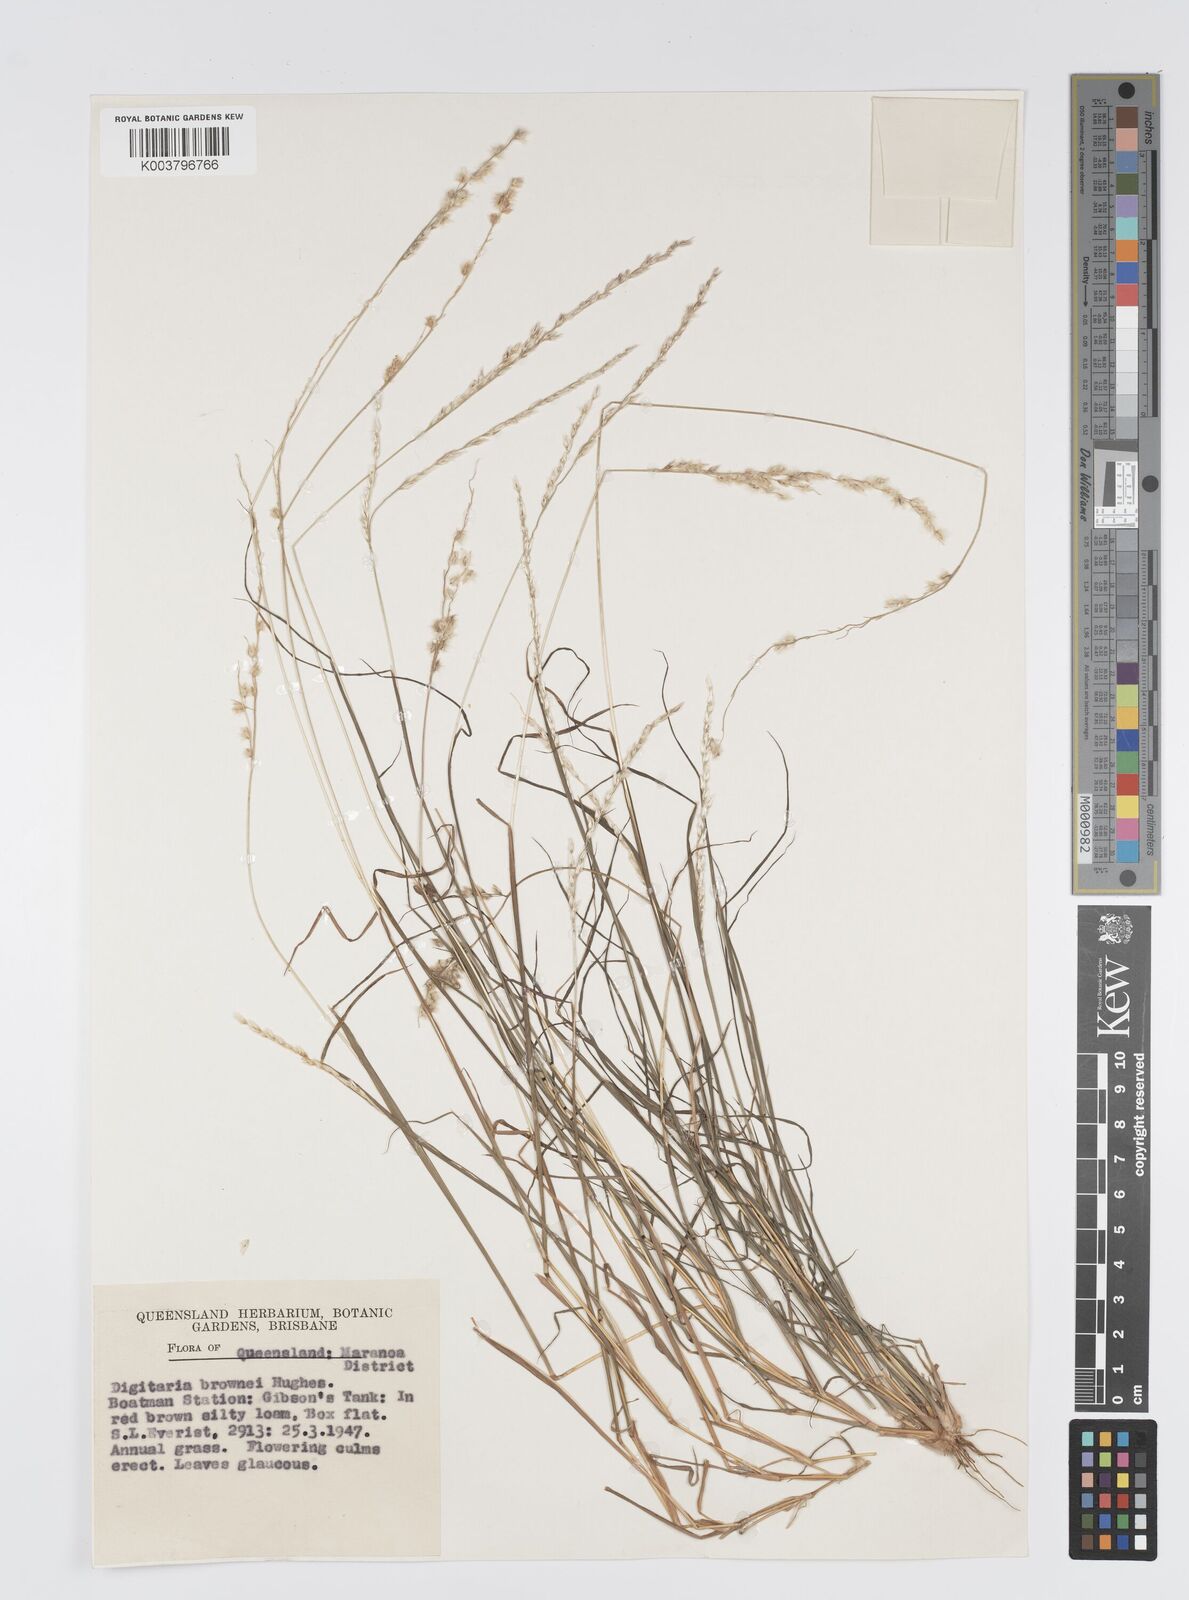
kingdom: Plantae
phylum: Tracheophyta
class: Liliopsida
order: Poales
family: Poaceae
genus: Digitaria
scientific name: Digitaria brownii
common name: Cotton grass
